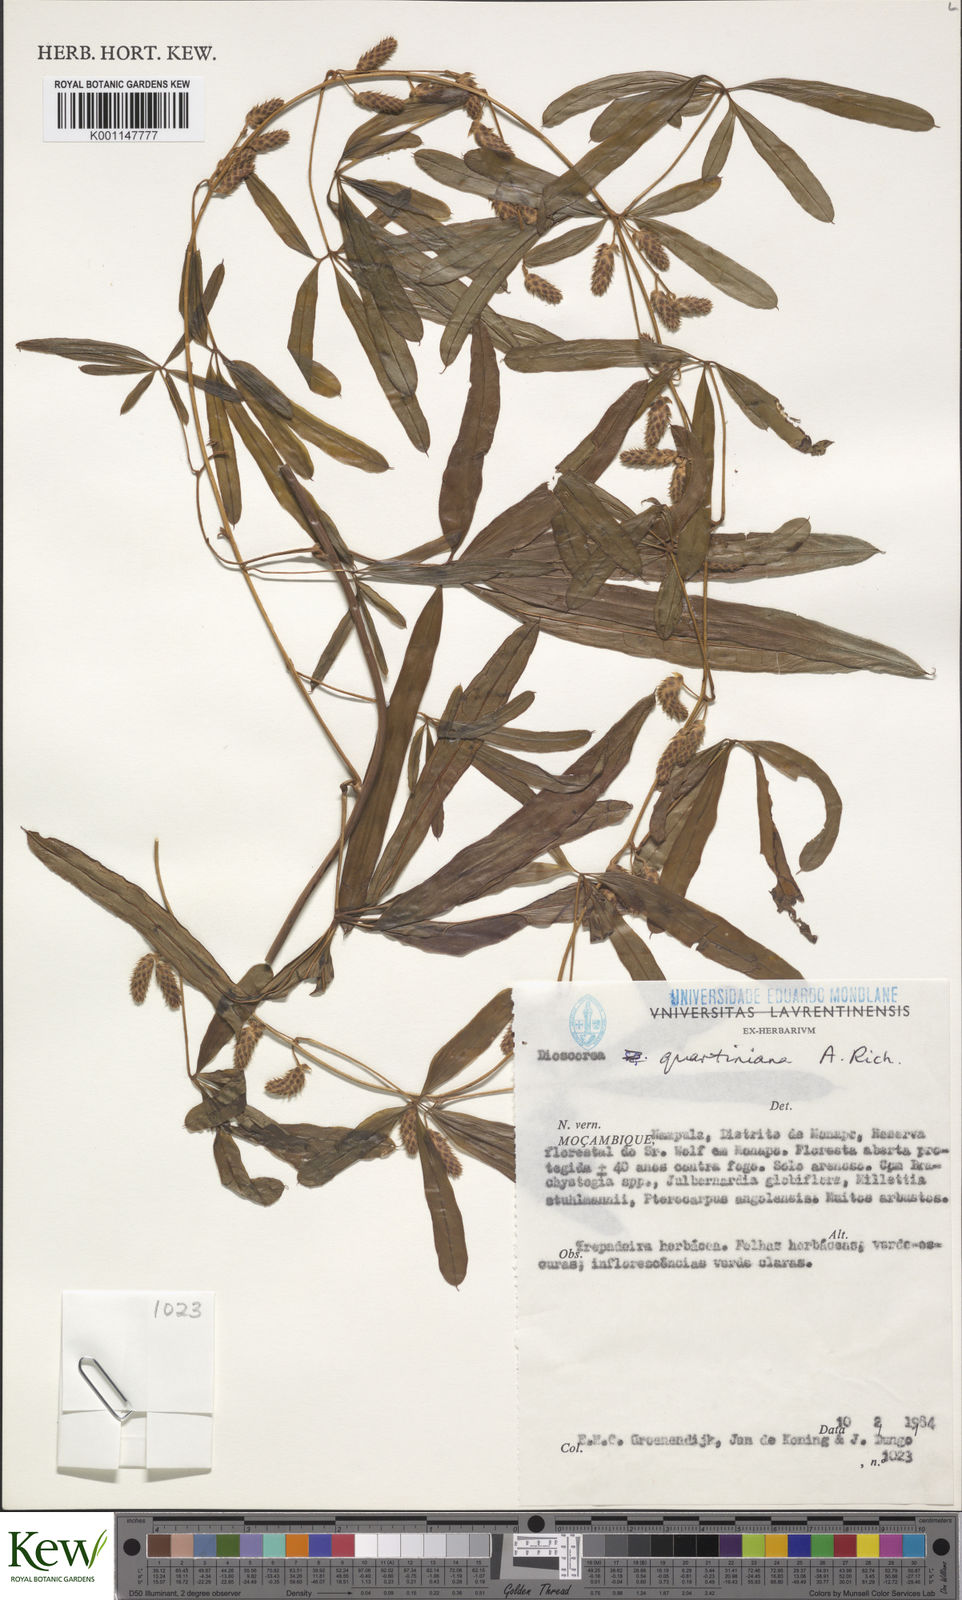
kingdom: Plantae
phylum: Tracheophyta
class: Liliopsida
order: Dioscoreales
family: Dioscoreaceae
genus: Dioscorea
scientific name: Dioscorea quartiniana
